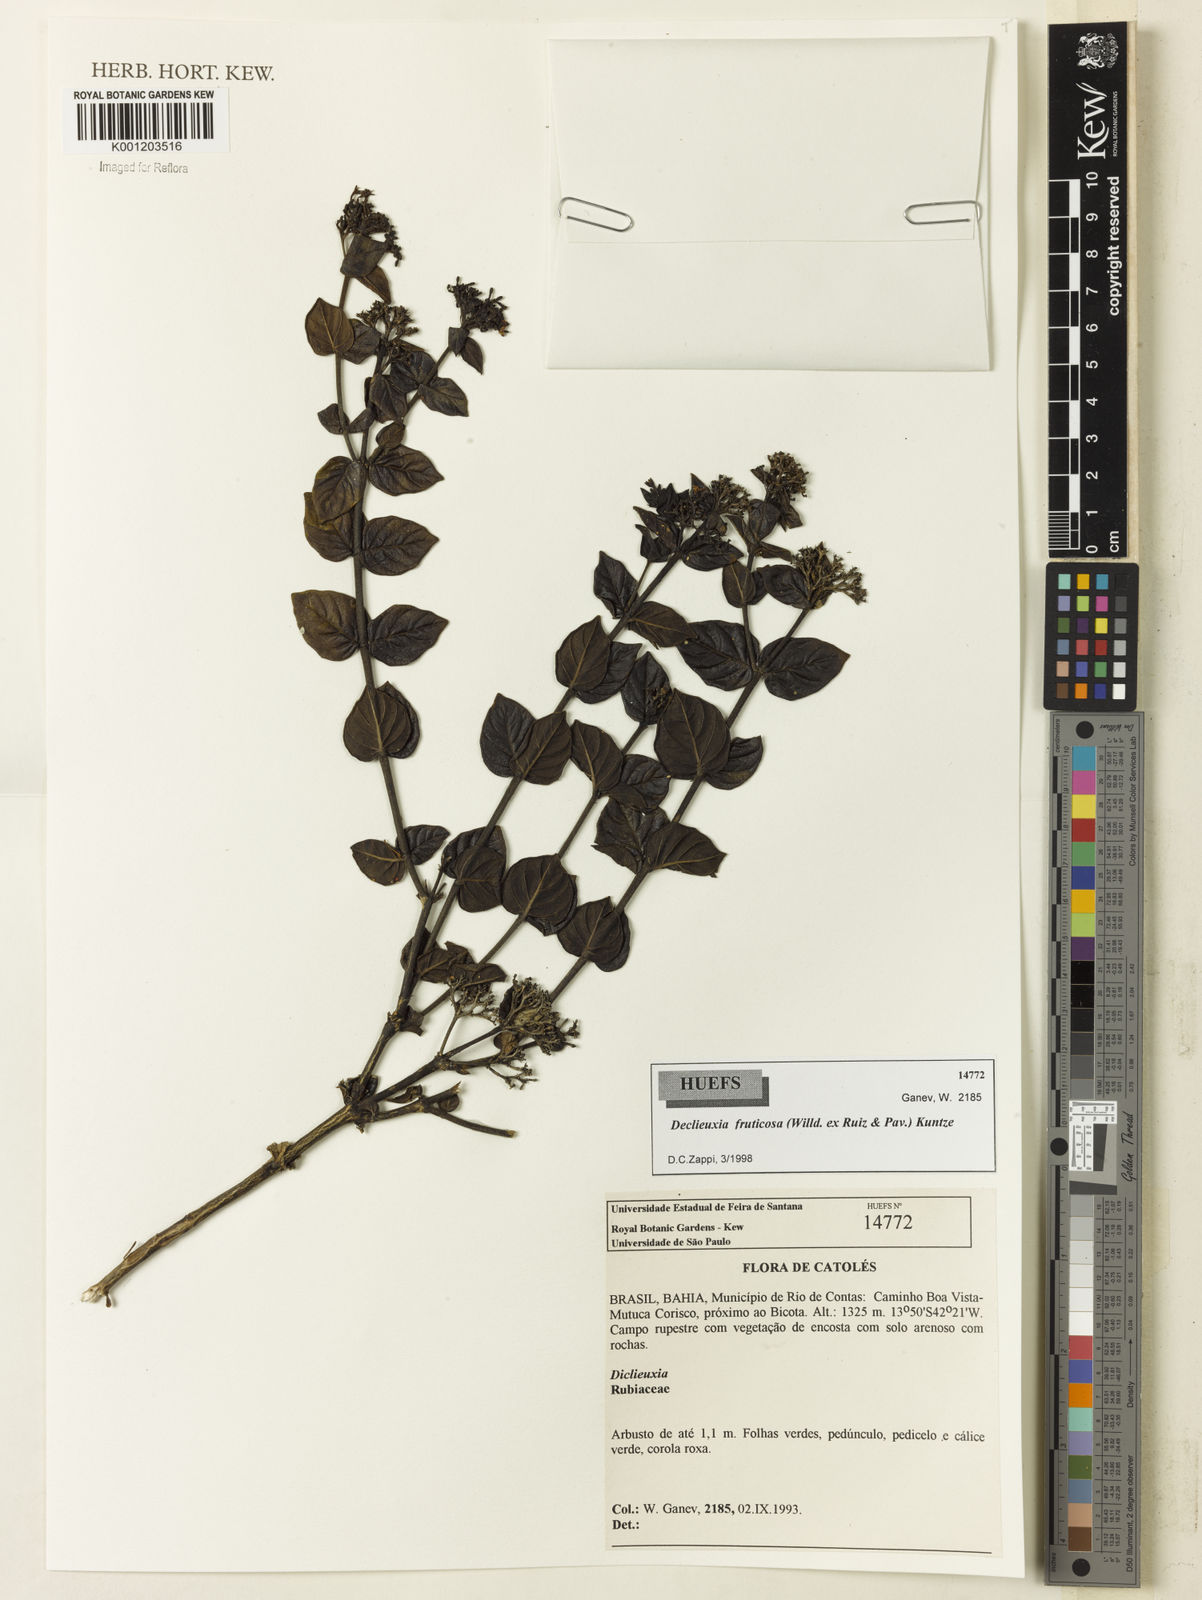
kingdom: Plantae
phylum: Tracheophyta
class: Magnoliopsida
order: Gentianales
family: Rubiaceae
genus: Declieuxia
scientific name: Declieuxia fruticosa
